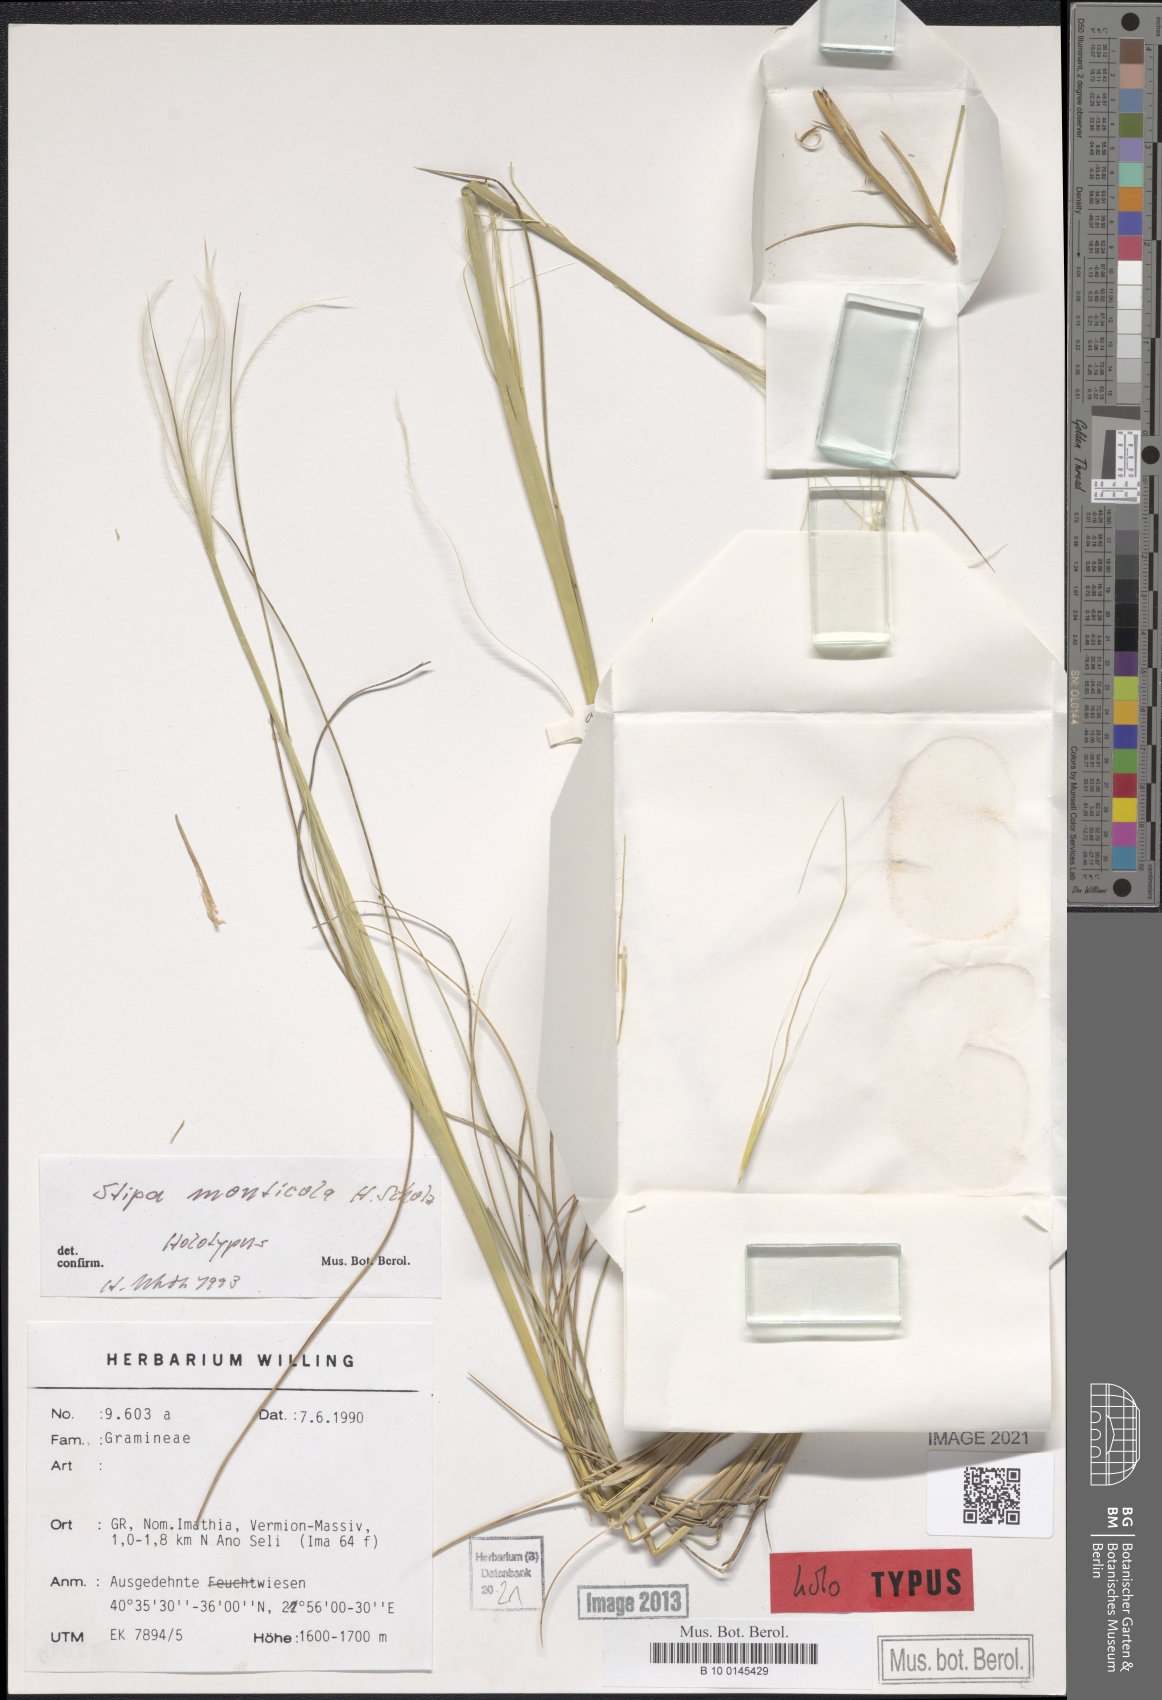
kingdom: Plantae
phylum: Tracheophyta
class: Liliopsida
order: Poales
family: Poaceae
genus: Stipa
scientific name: Stipa endotricha
